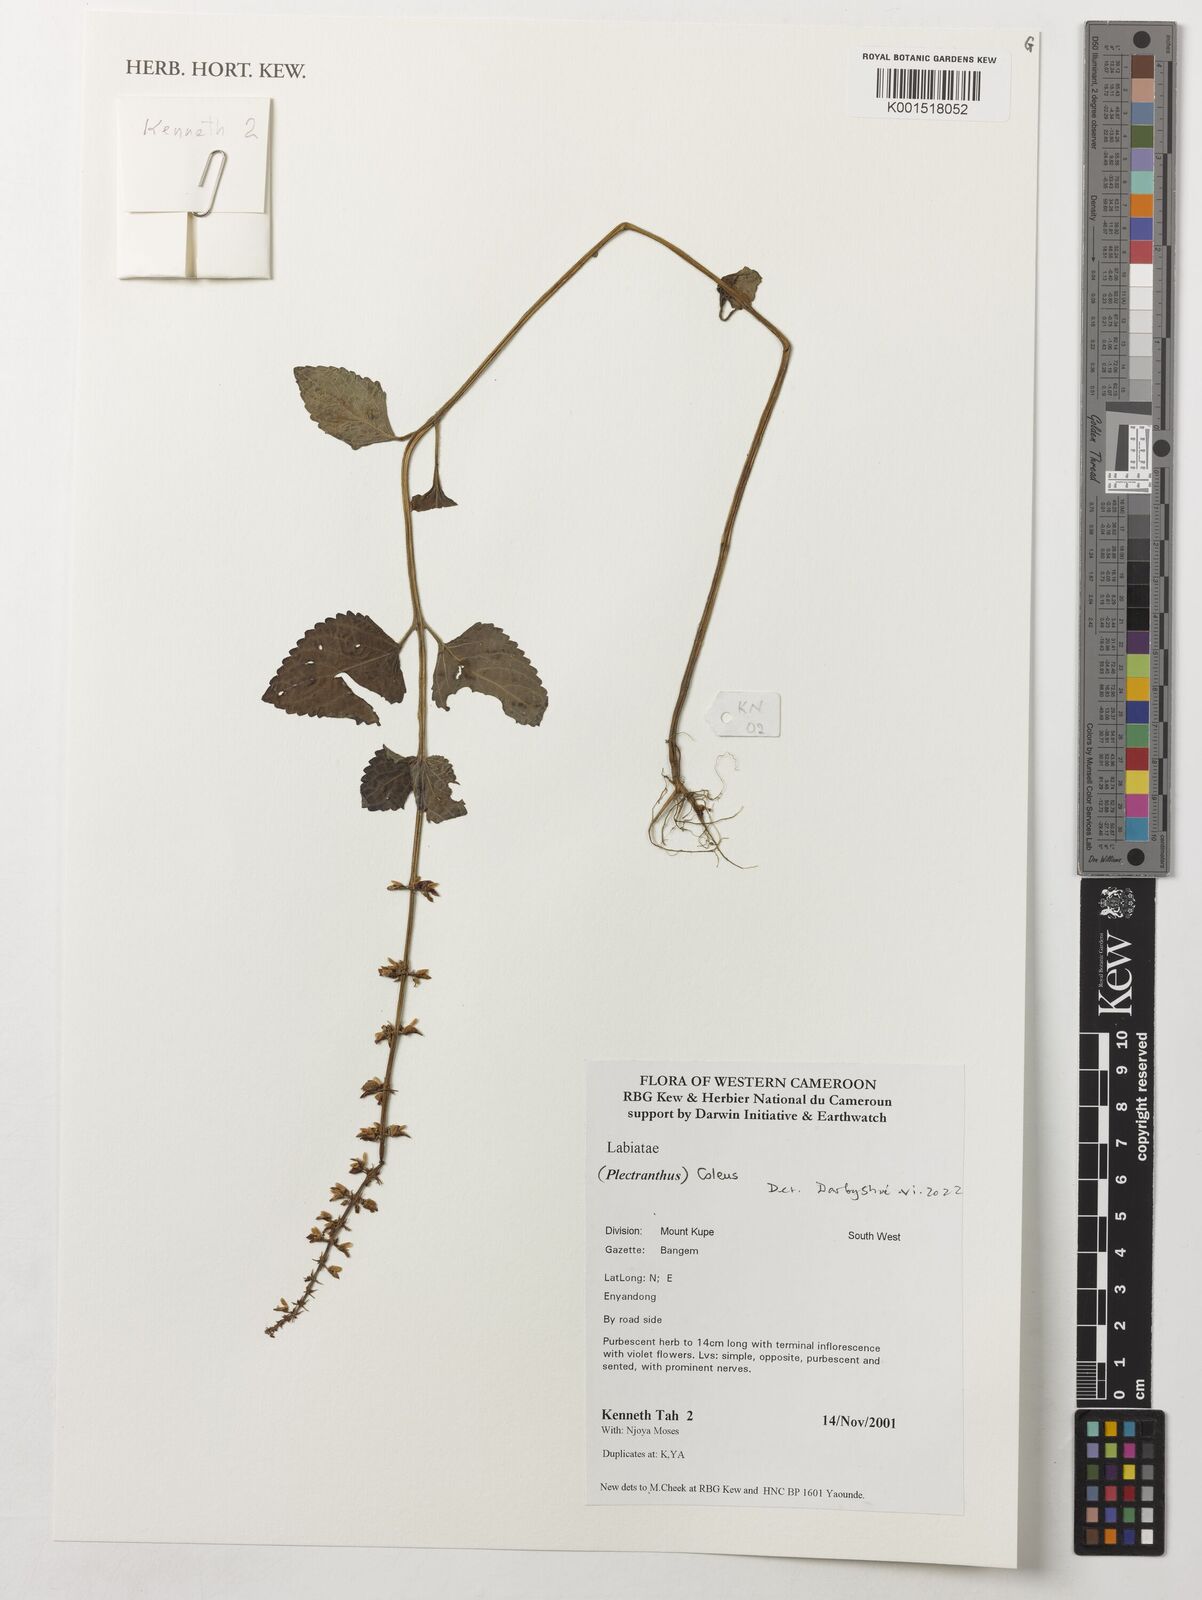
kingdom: Plantae
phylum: Tracheophyta
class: Magnoliopsida
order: Lamiales
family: Lamiaceae
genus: Coleus
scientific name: Coleus
